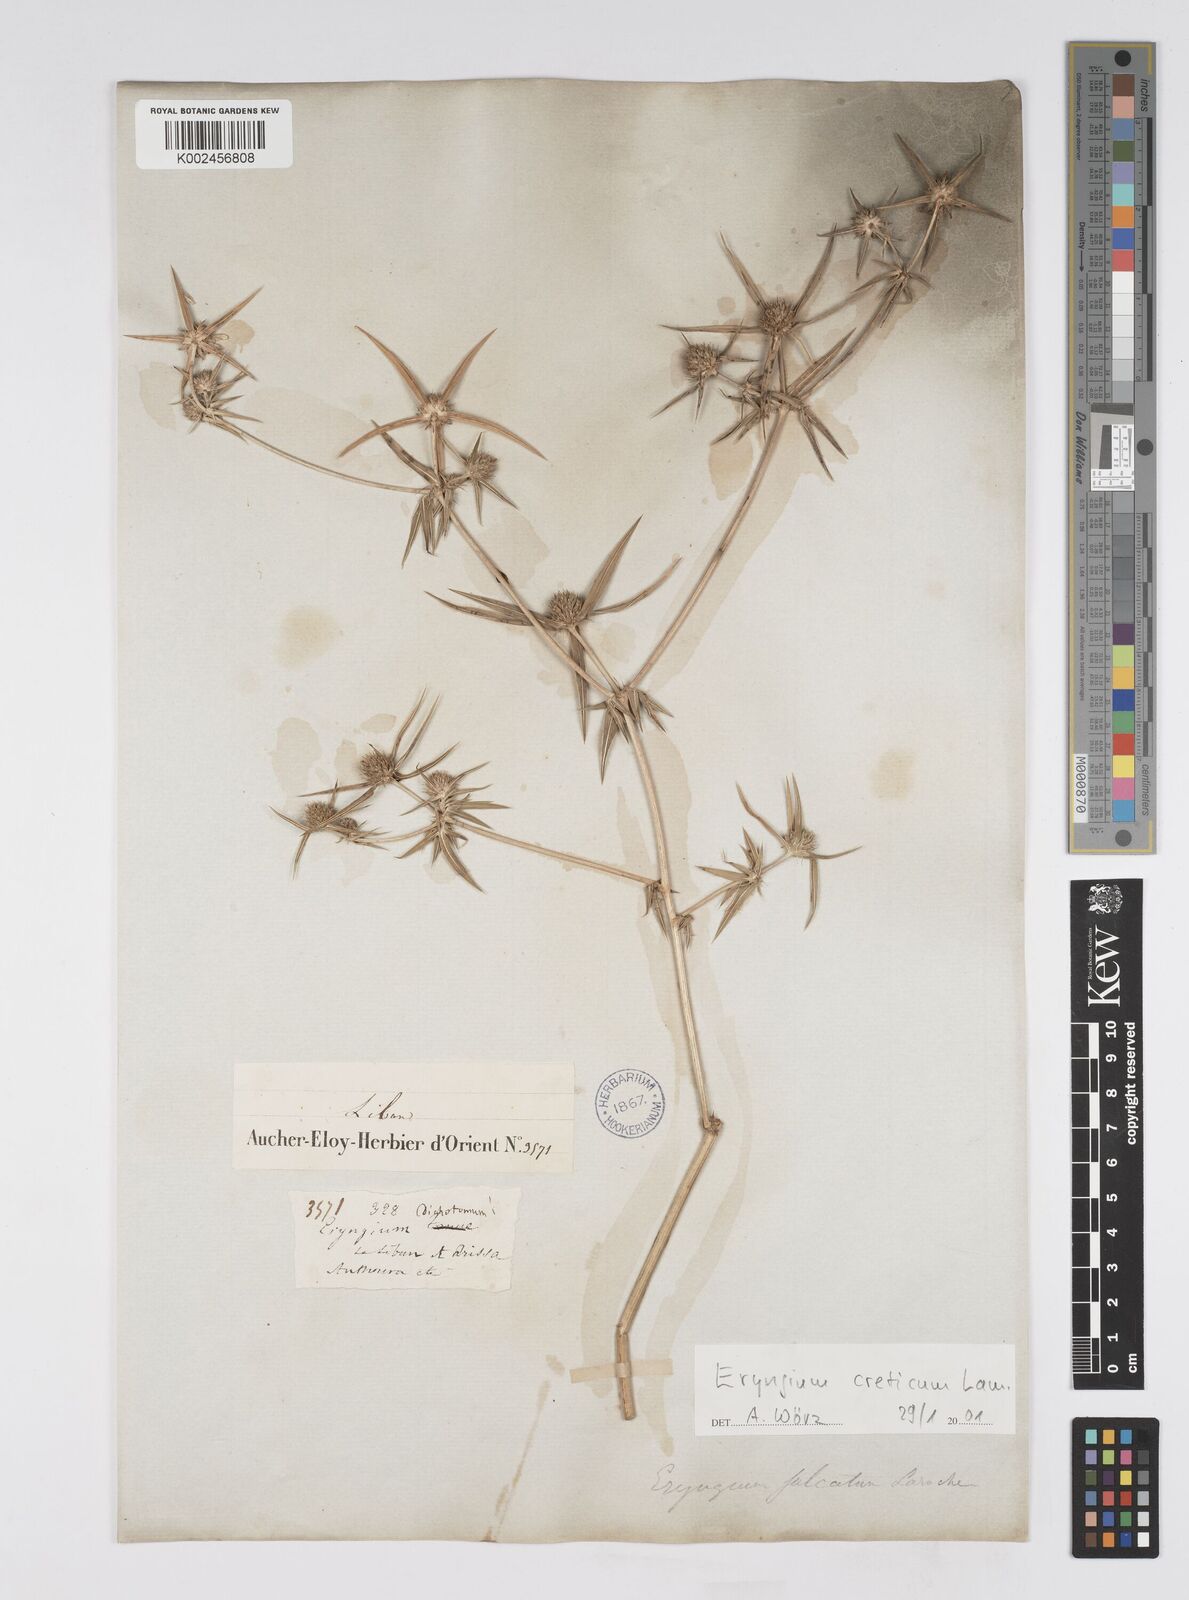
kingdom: Plantae
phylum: Tracheophyta
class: Magnoliopsida
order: Apiales
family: Apiaceae
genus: Eryngium
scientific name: Eryngium creticum
